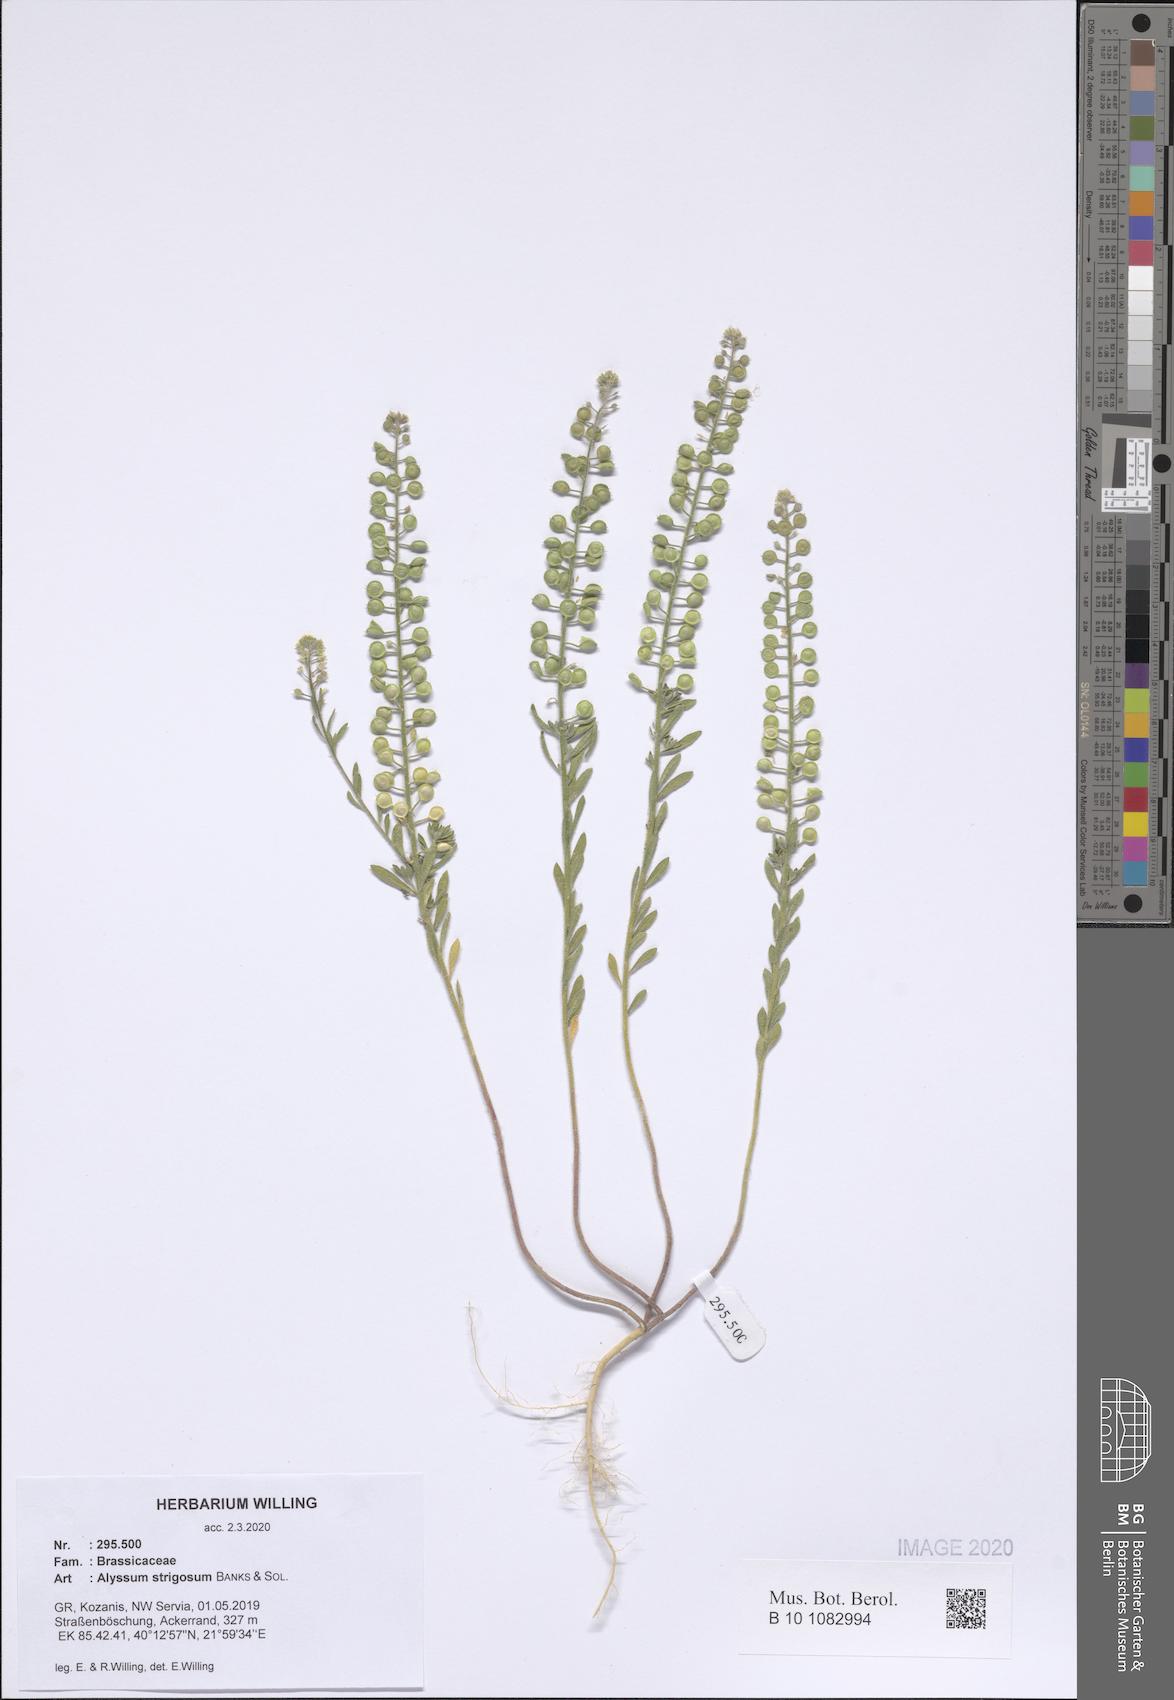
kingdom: Plantae
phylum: Tracheophyta
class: Magnoliopsida
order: Brassicales
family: Brassicaceae
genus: Alyssum
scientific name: Alyssum strigosum
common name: Alyssum
